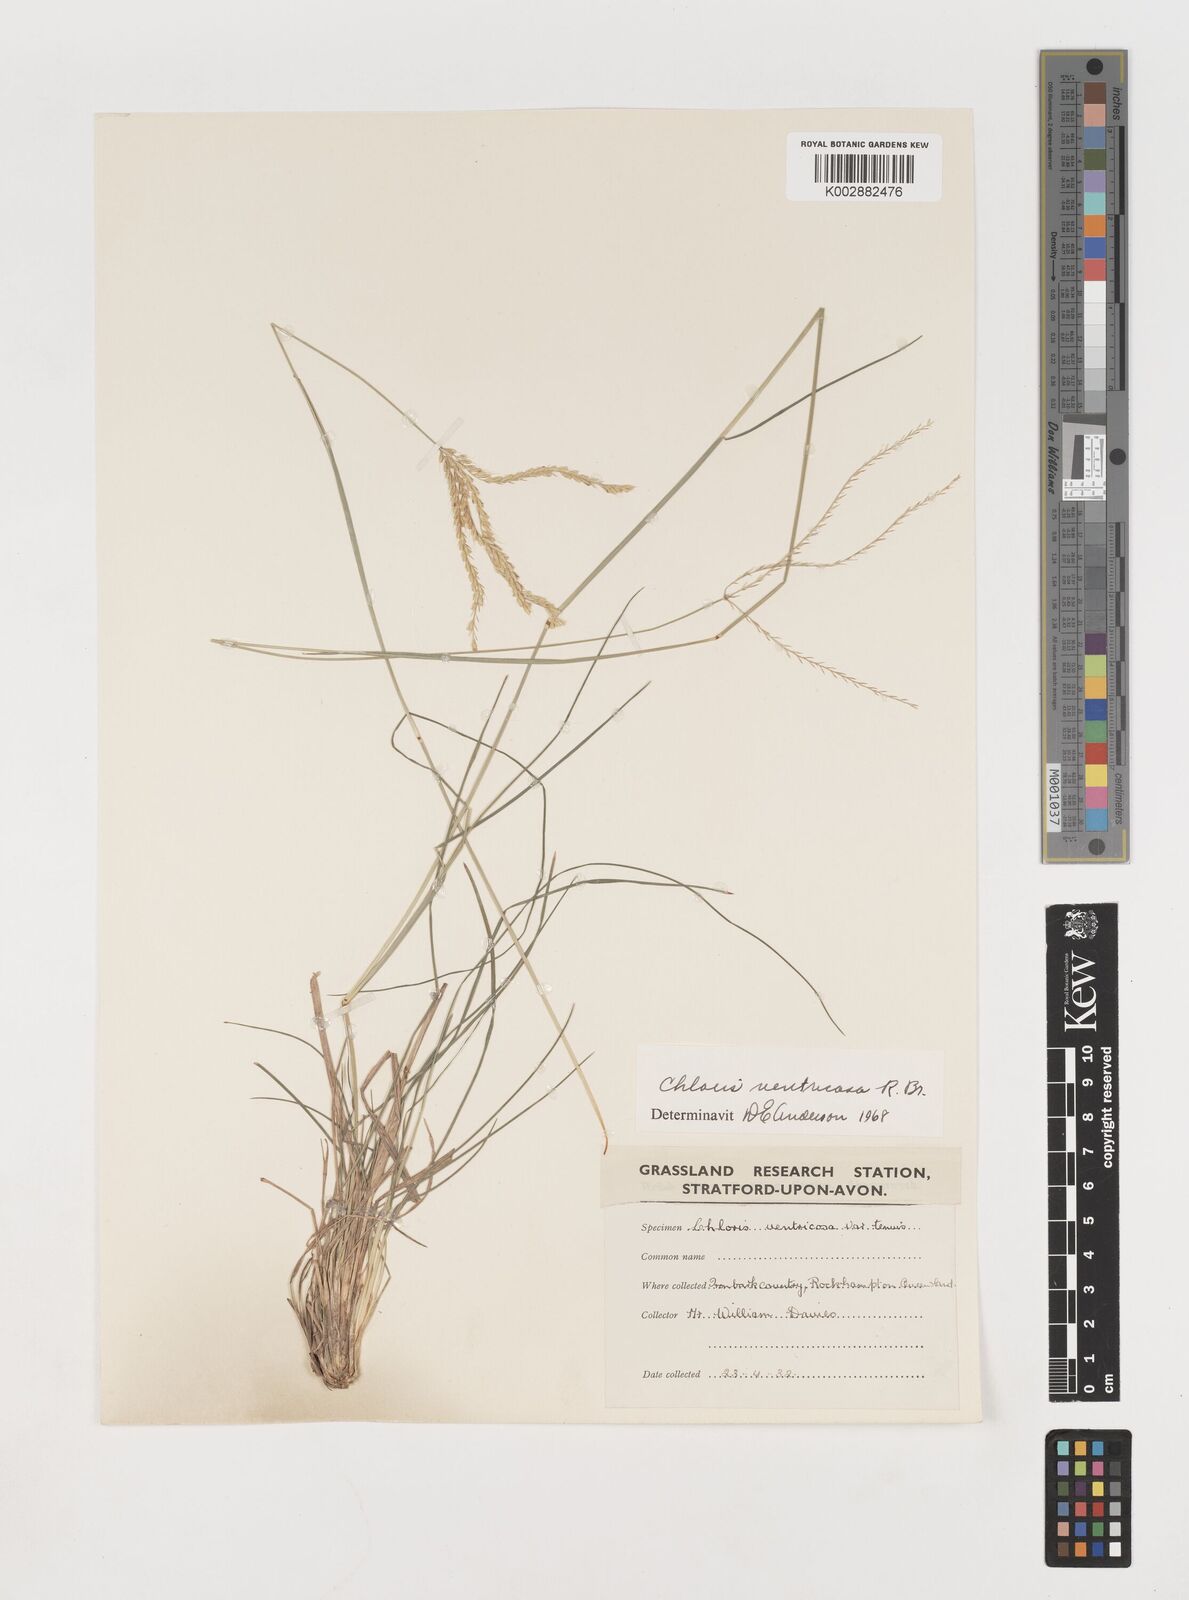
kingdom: Plantae
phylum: Tracheophyta
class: Liliopsida
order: Poales
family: Poaceae
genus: Chloris
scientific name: Chloris ventricosa
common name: Australian windmill grass
